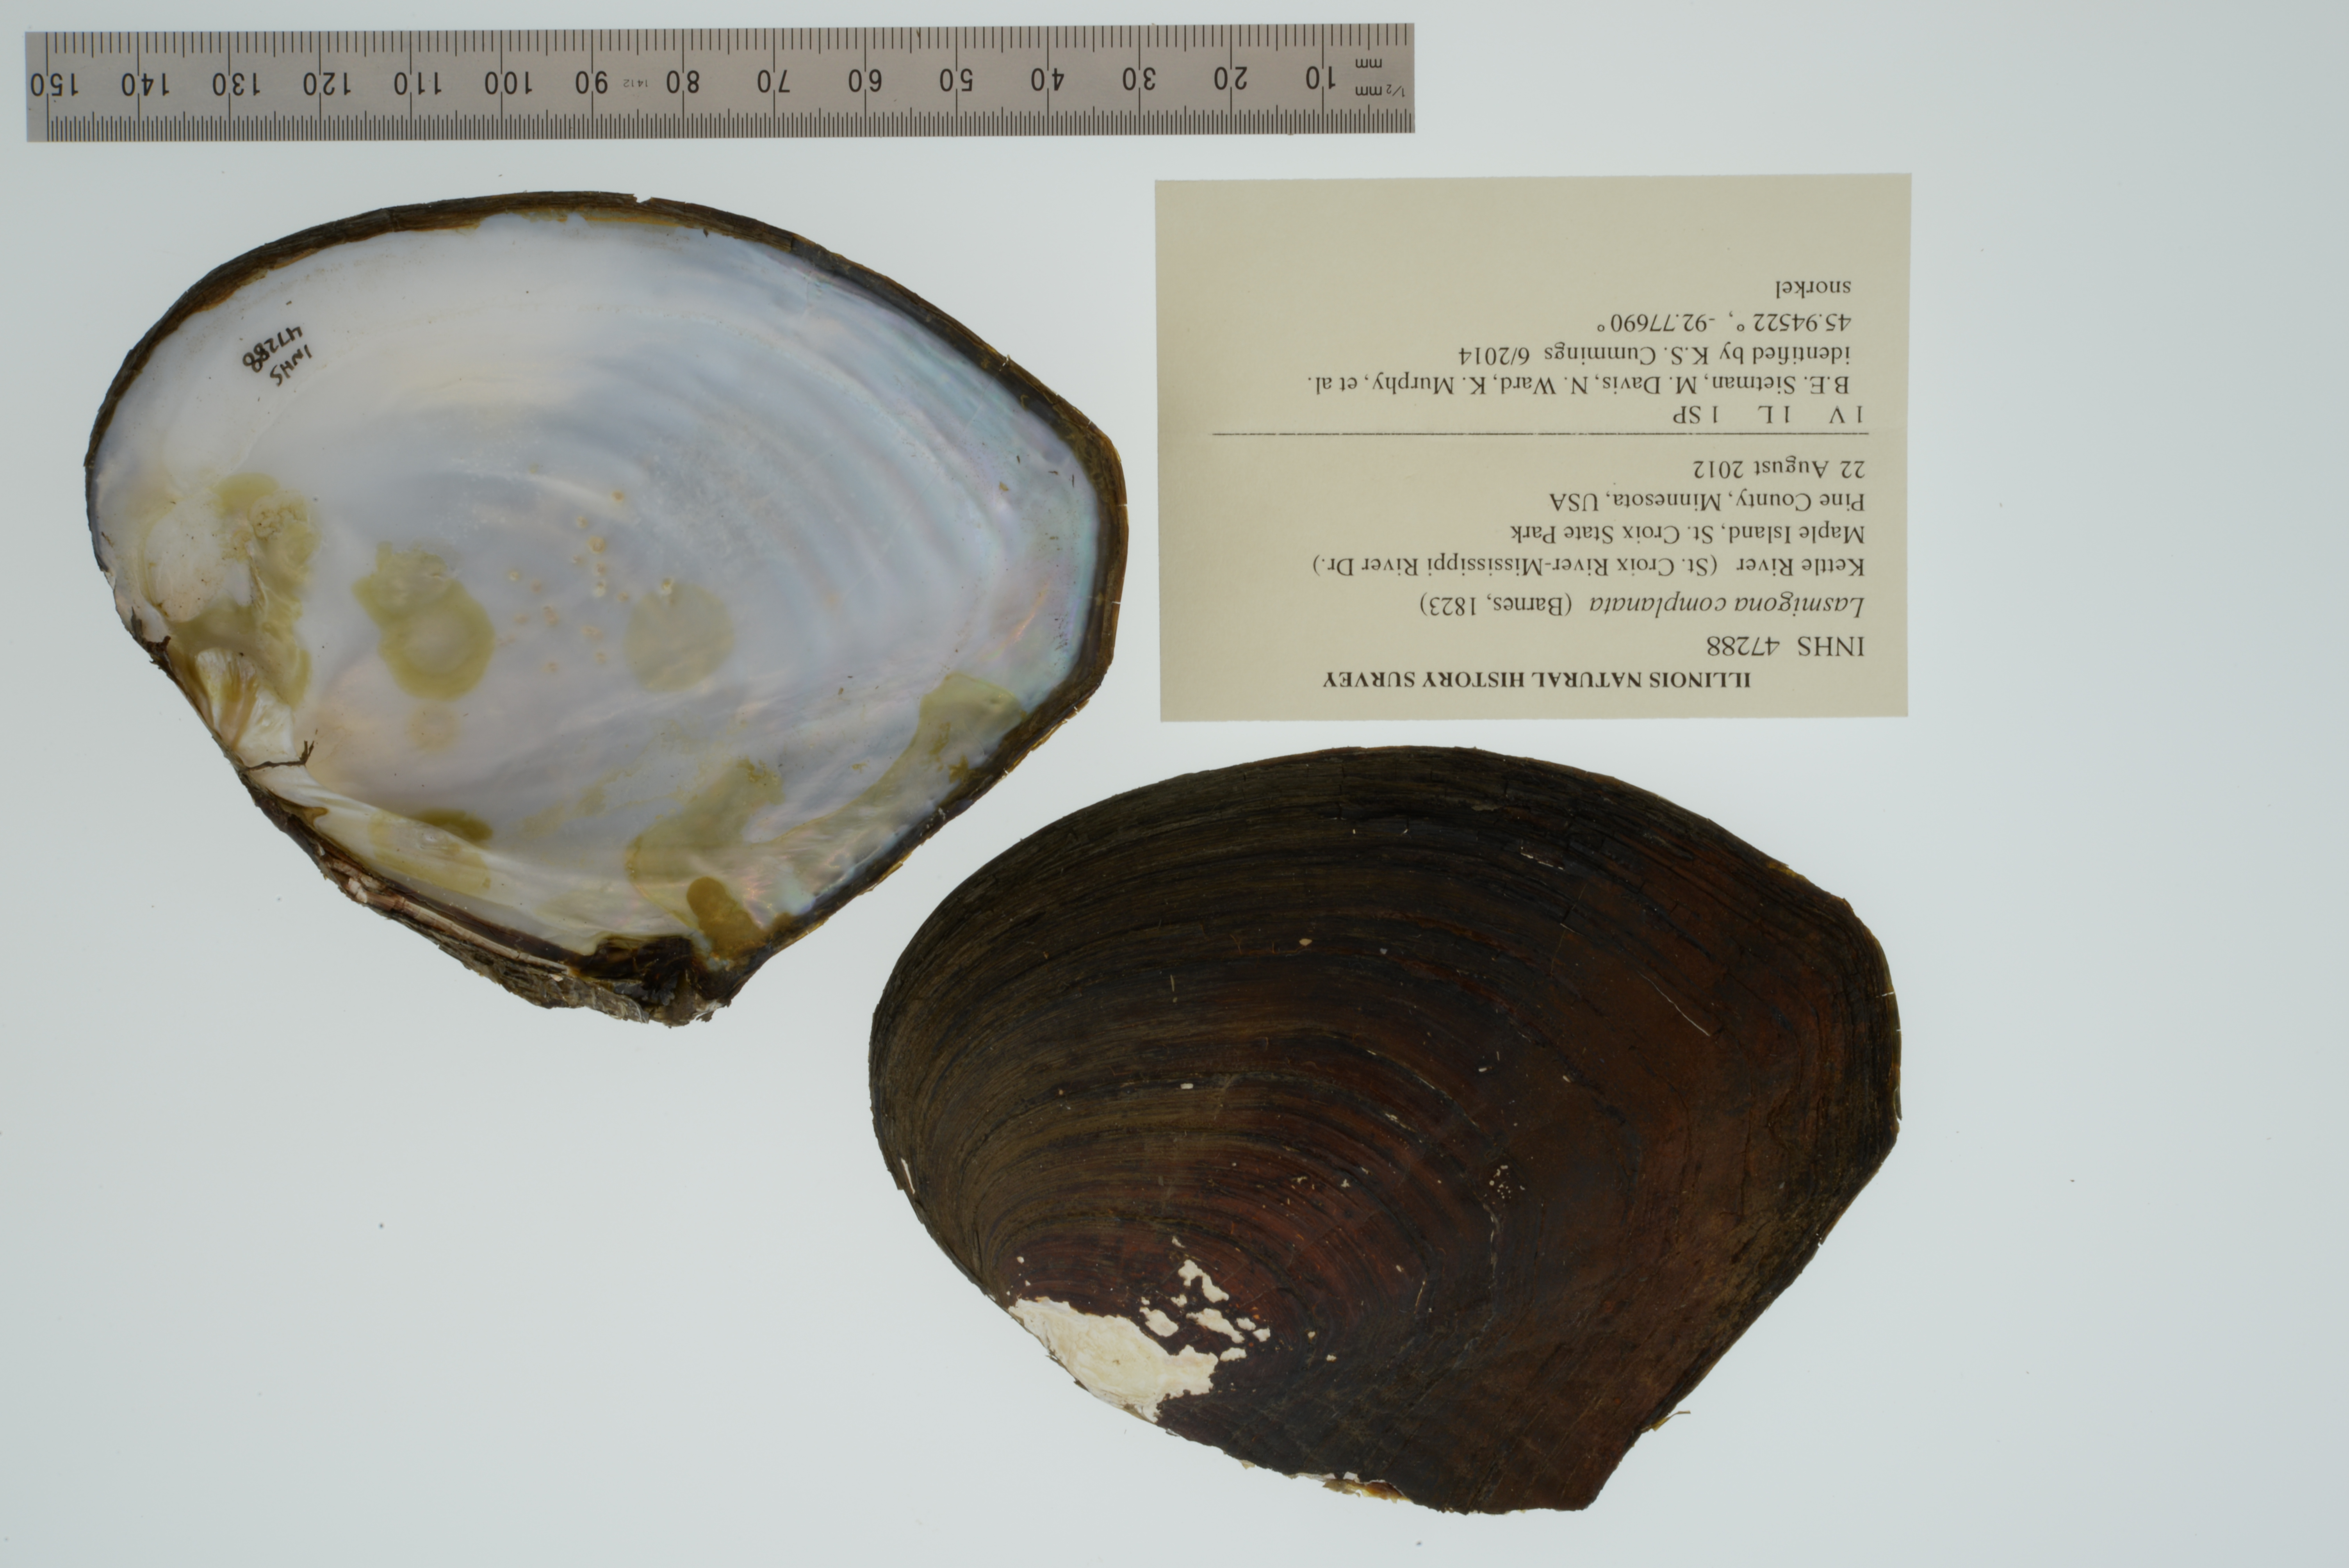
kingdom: Animalia
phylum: Mollusca
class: Bivalvia
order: Unionida
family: Unionidae
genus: Lasmigona
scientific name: Lasmigona complanata
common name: White heelsplitter
